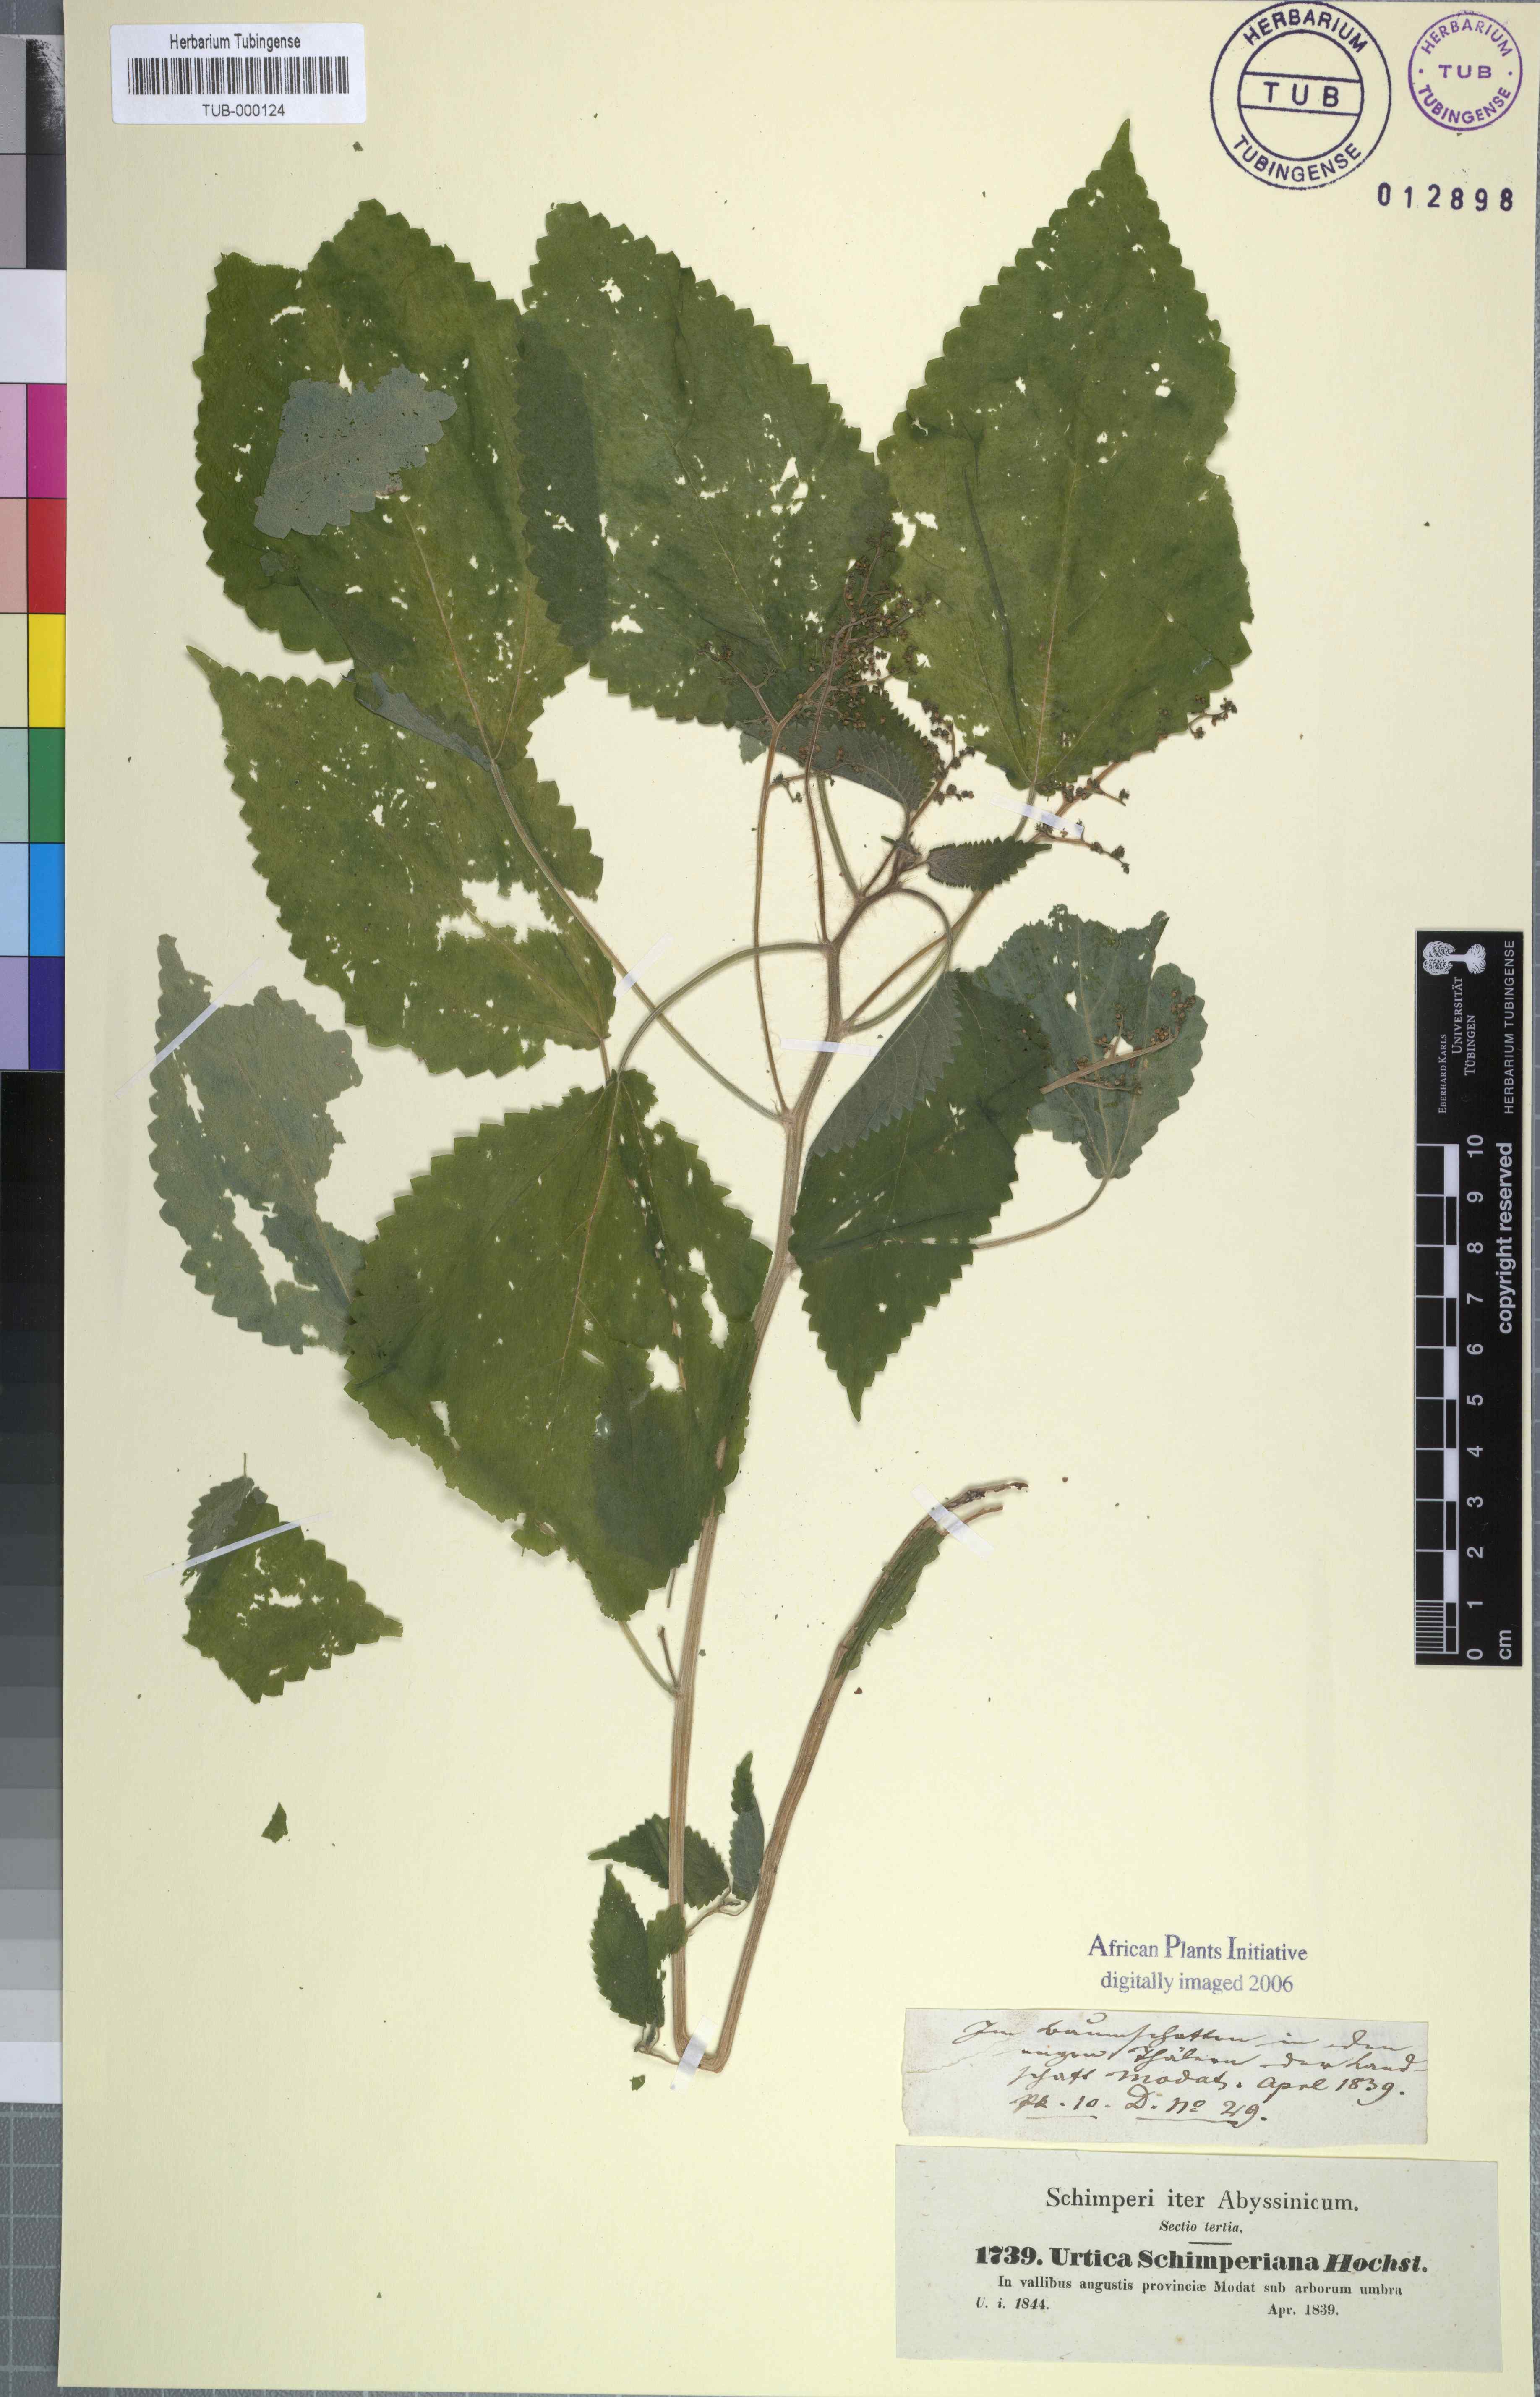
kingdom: Plantae
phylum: Tracheophyta
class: Magnoliopsida
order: Rosales
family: Urticaceae
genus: Laportea
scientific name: Laportea aestuans
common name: West indian woodnettle
